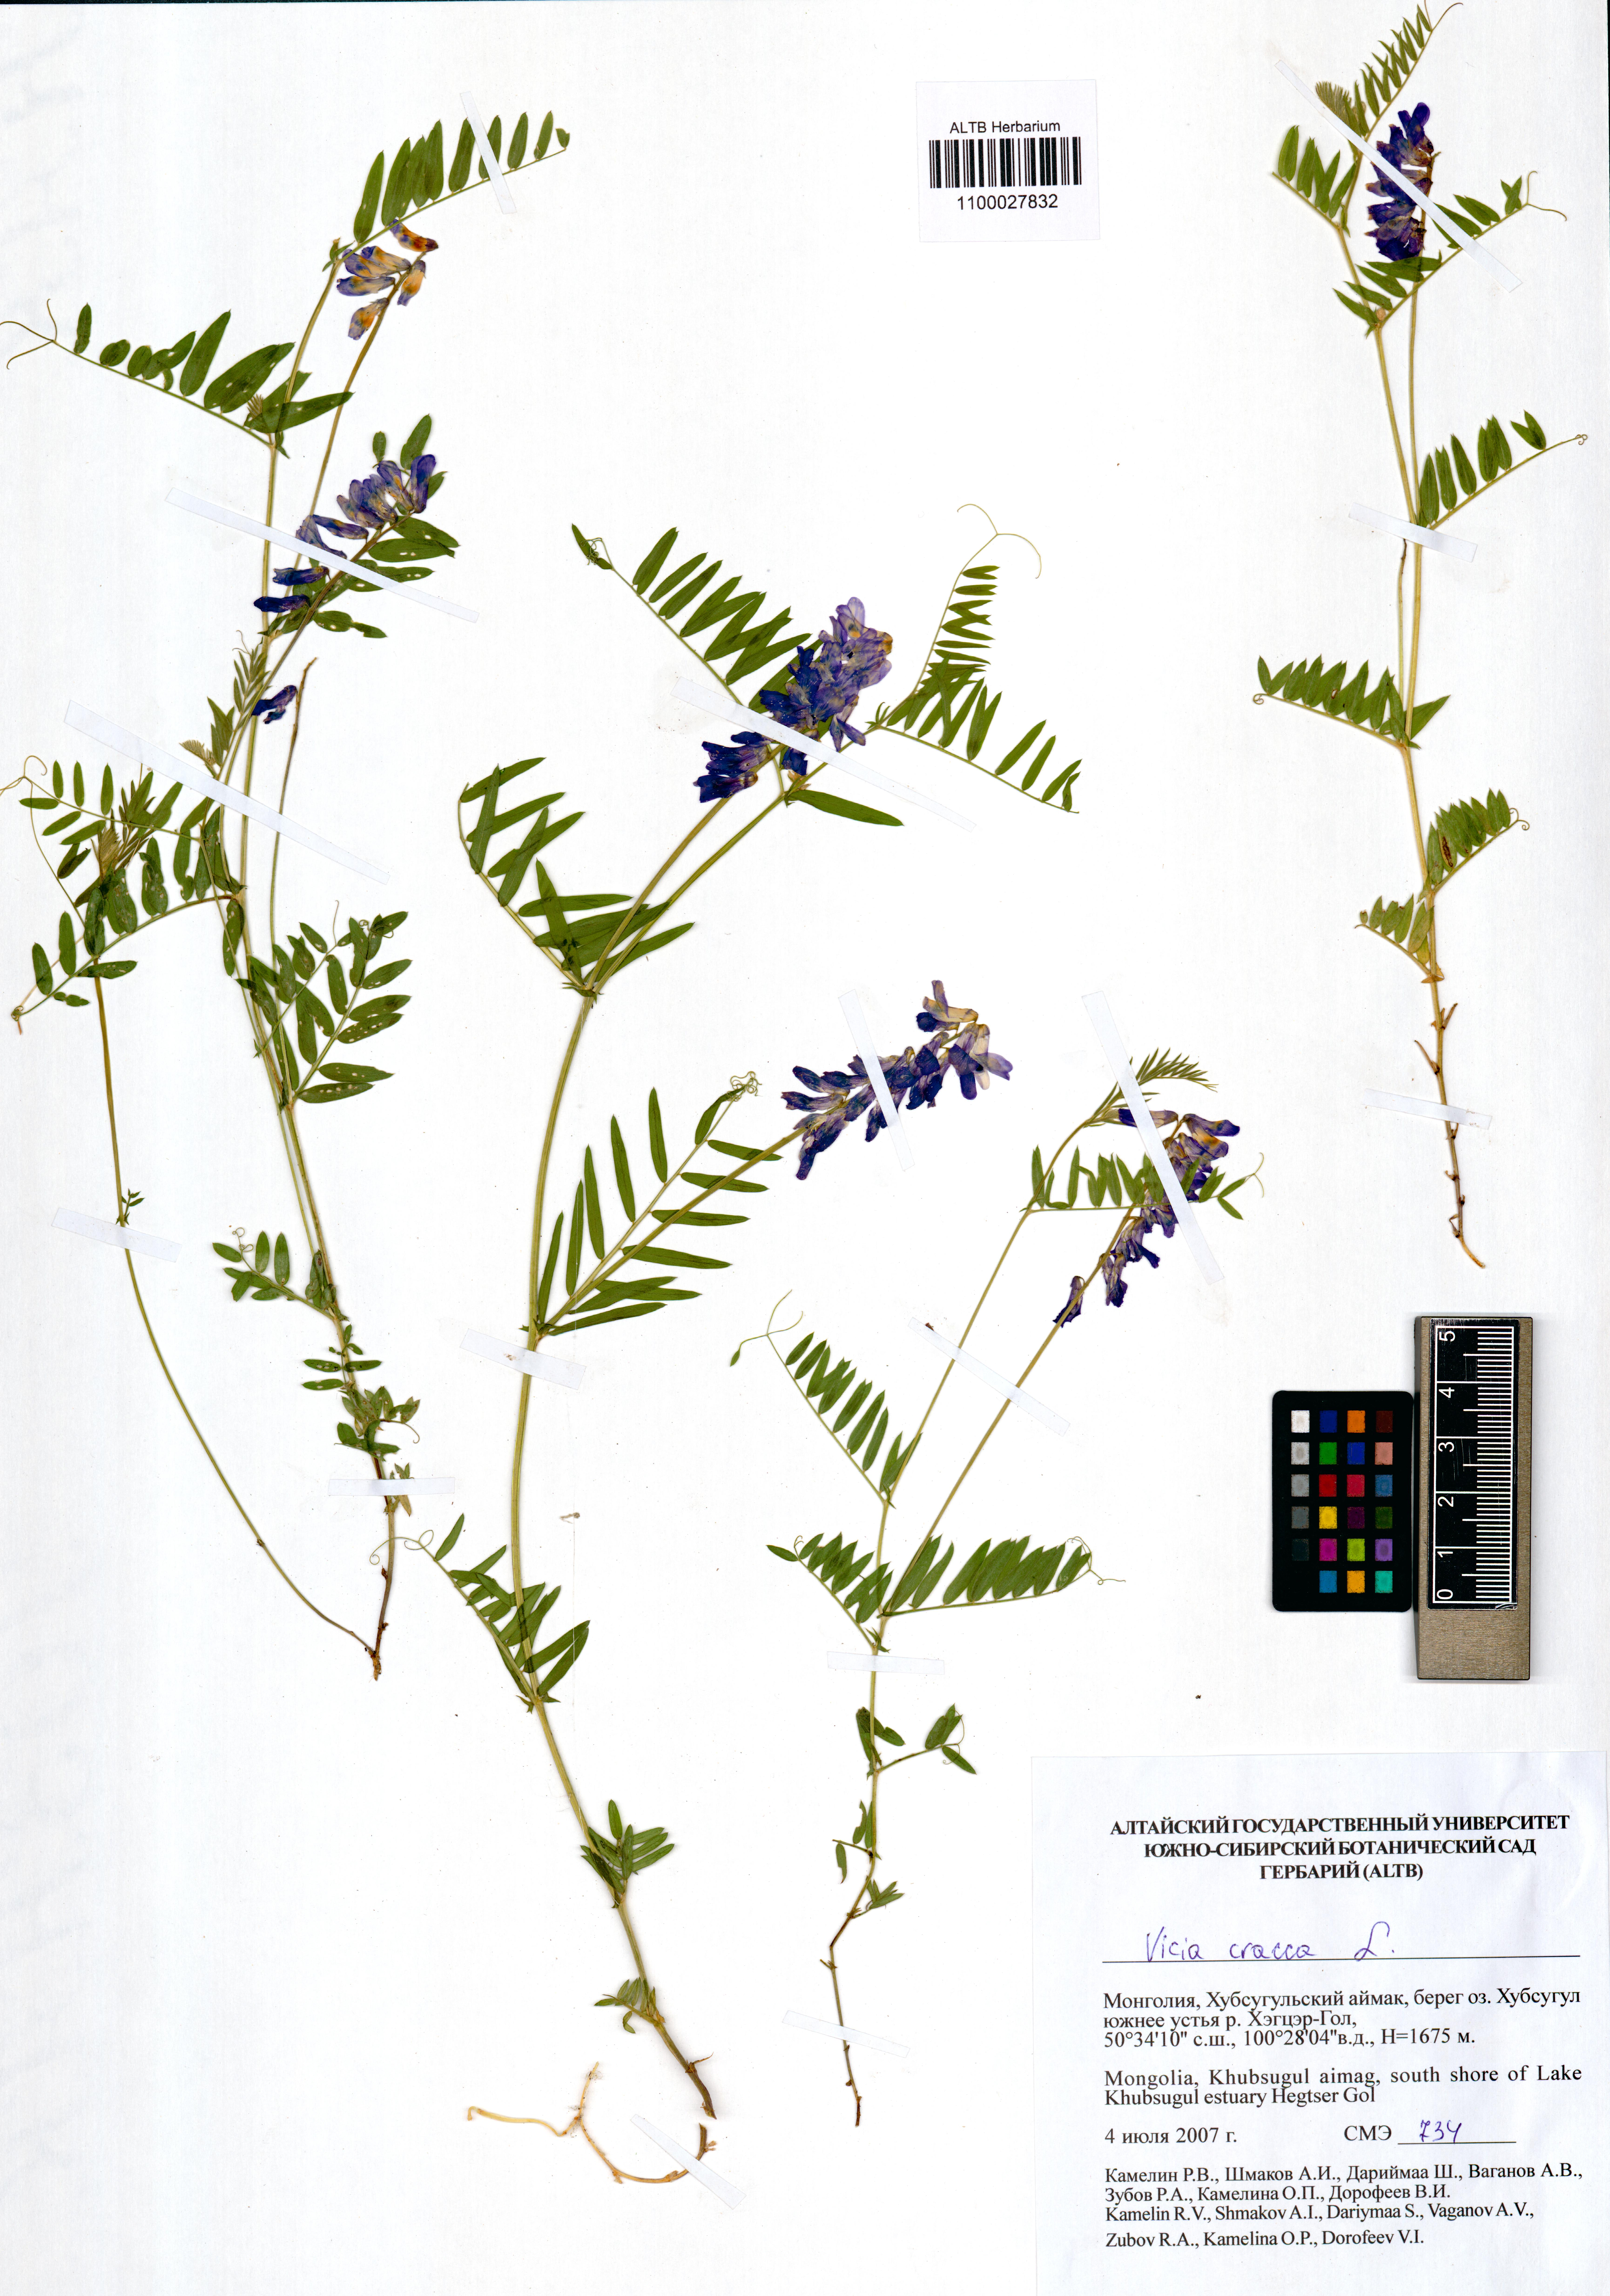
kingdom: Plantae
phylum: Tracheophyta
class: Magnoliopsida
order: Fabales
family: Fabaceae
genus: Vicia
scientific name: Vicia cracca
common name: Bird vetch
